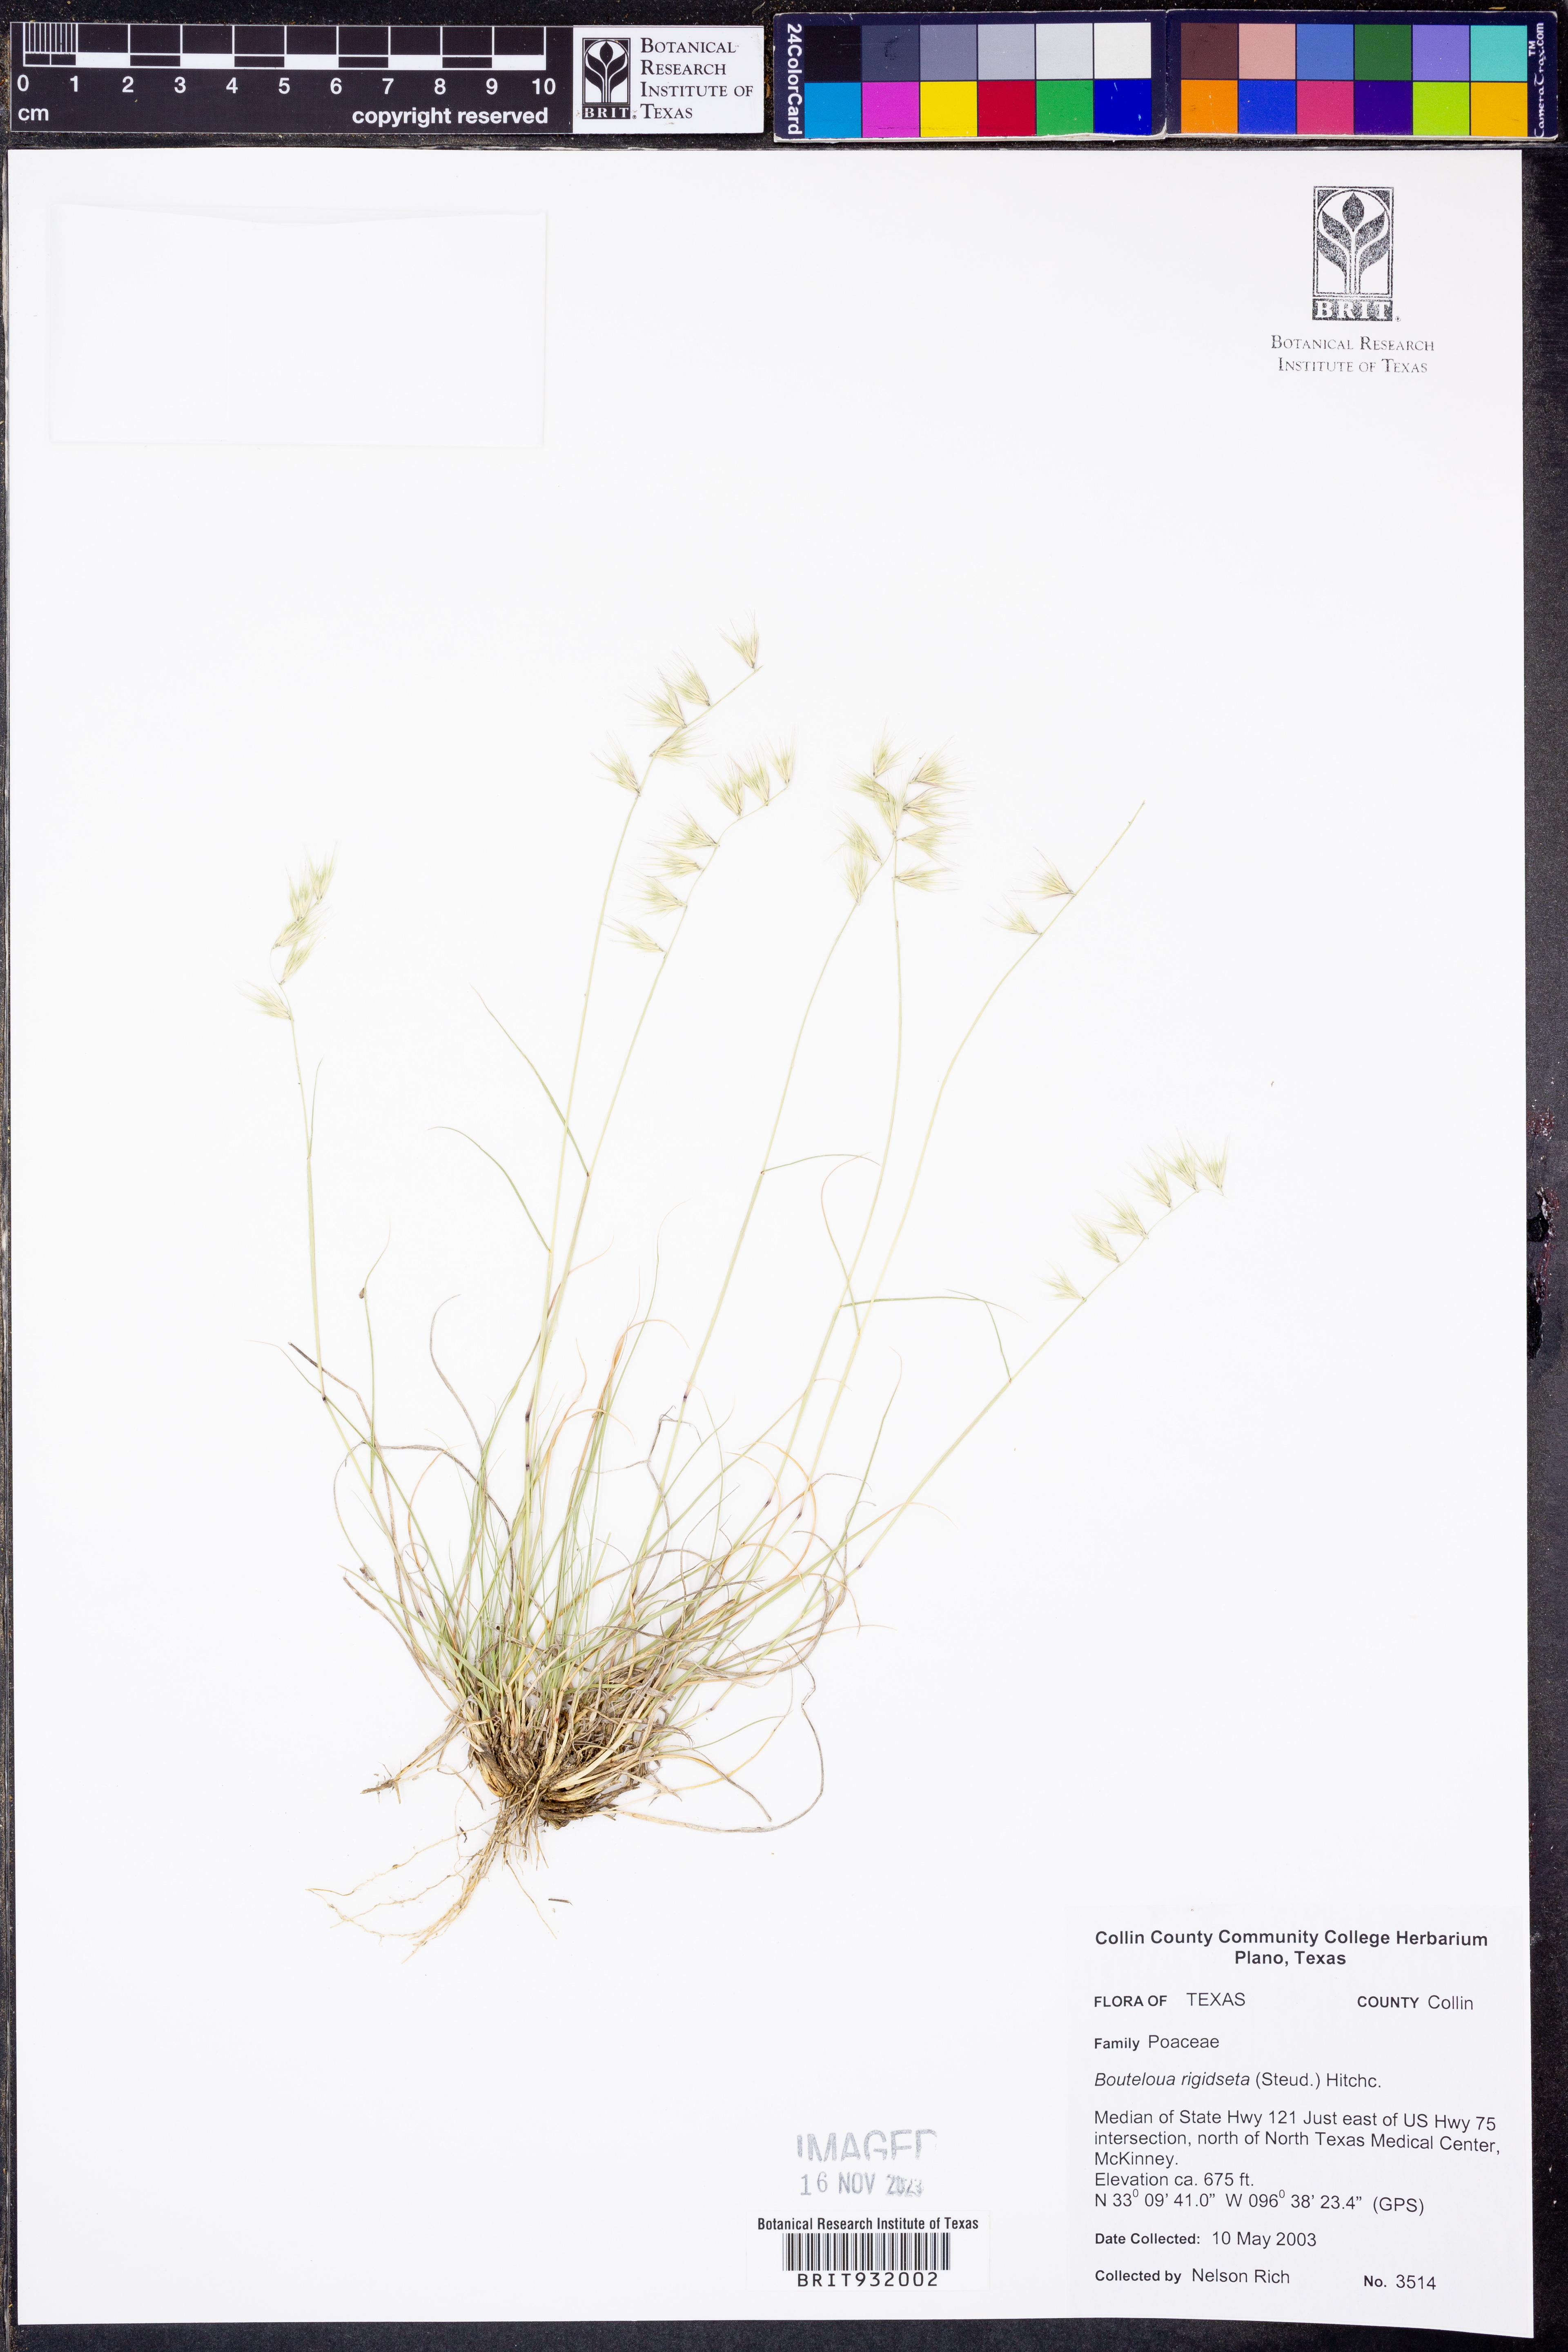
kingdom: Plantae
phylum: Tracheophyta
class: Liliopsida
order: Poales
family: Poaceae
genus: Bouteloua
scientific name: Bouteloua rigidiseta
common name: Texas grama
